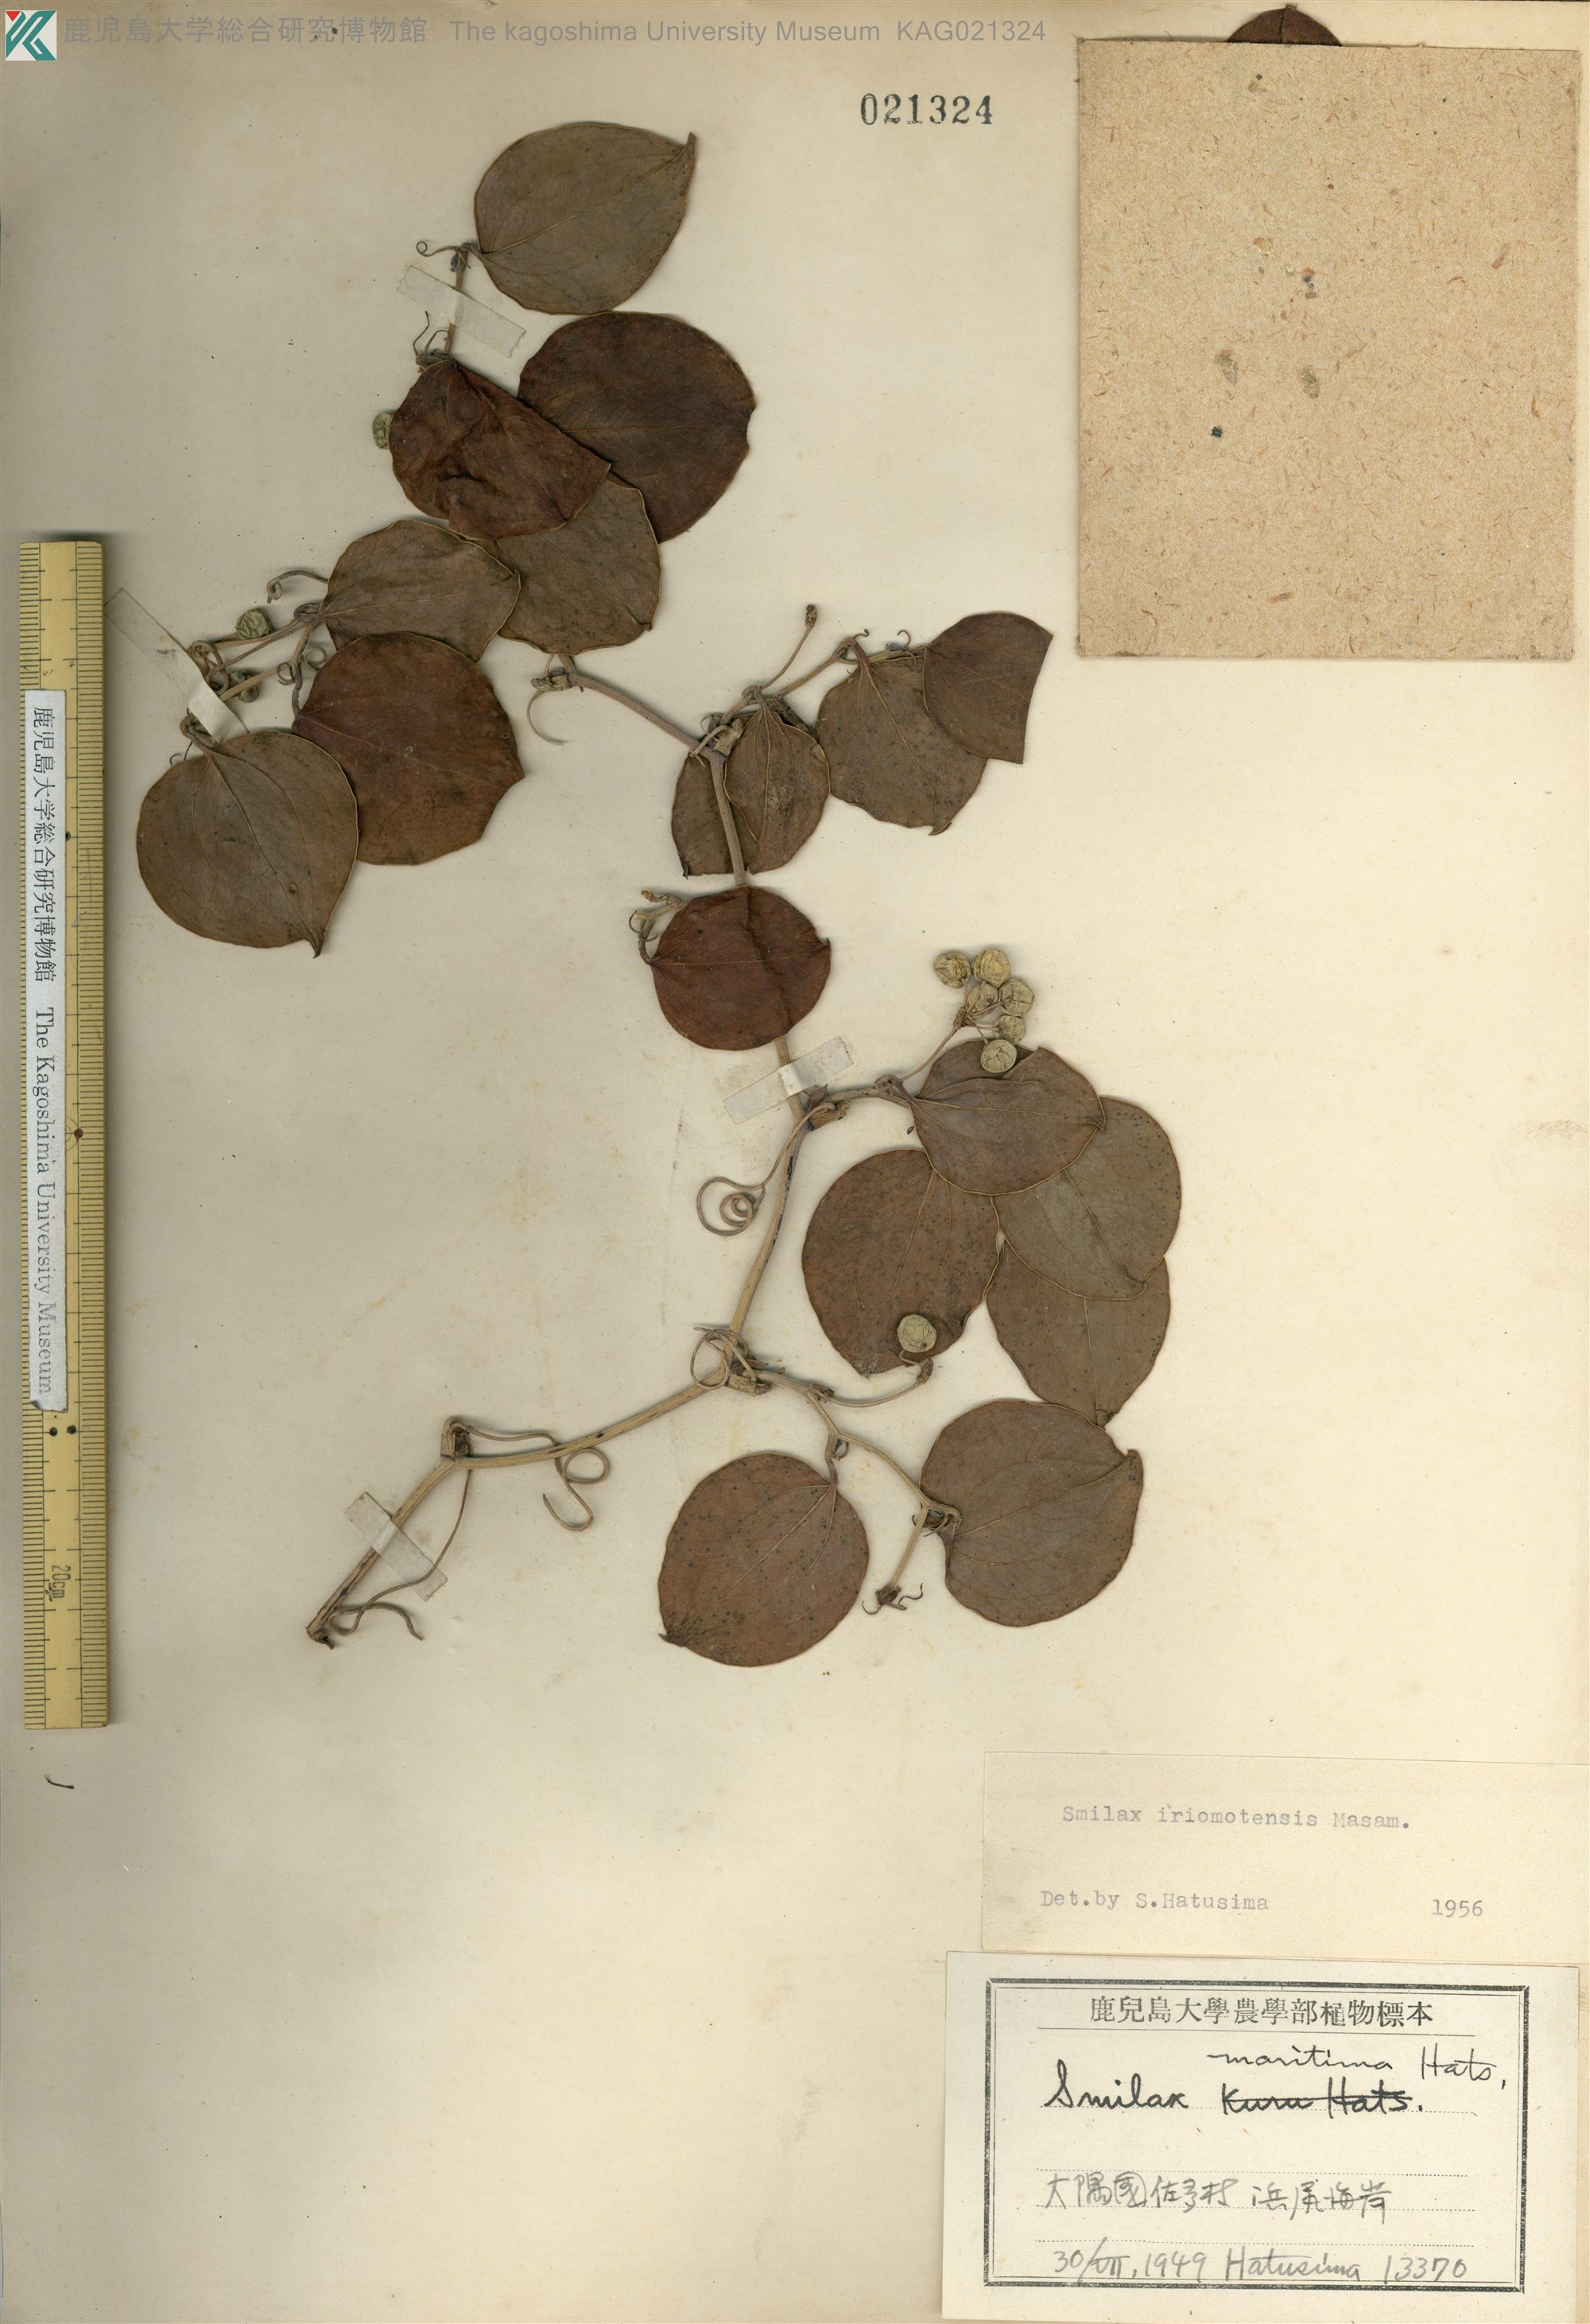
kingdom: Plantae
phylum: Tracheophyta
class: Liliopsida
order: Liliales
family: Smilacaceae
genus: Smilax
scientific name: Smilax sebeana
